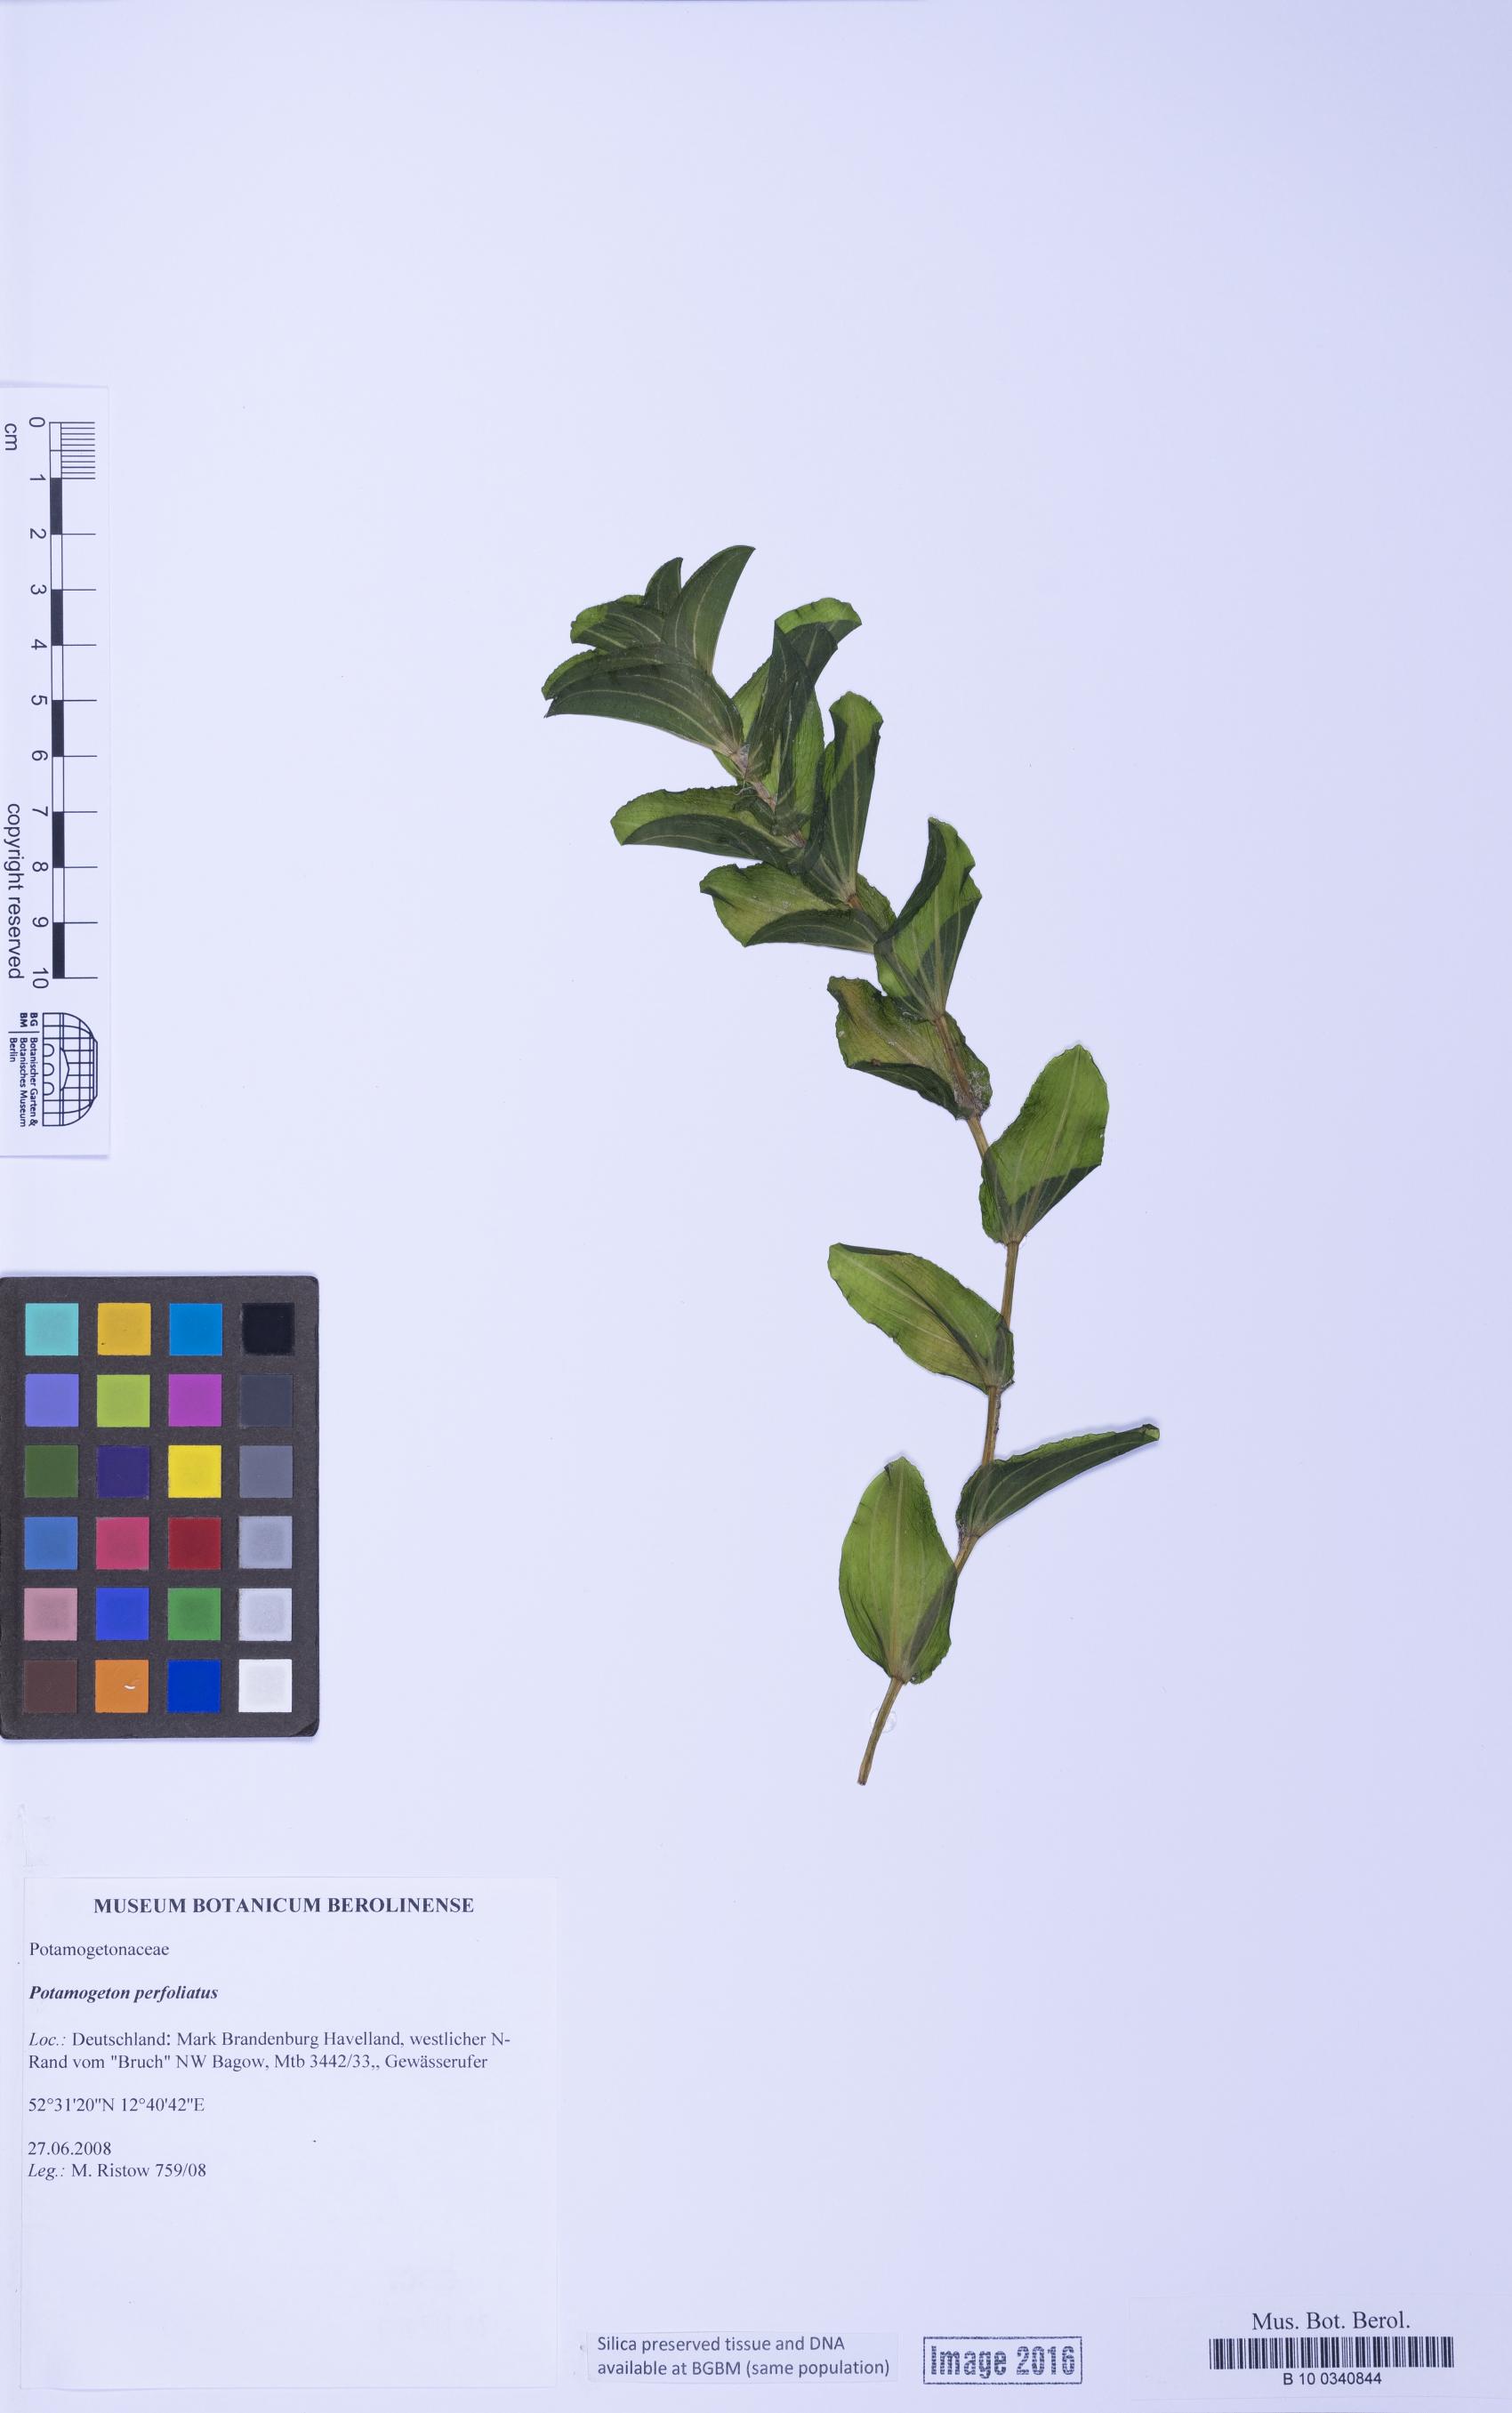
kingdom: Plantae
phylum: Tracheophyta
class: Liliopsida
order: Alismatales
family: Potamogetonaceae
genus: Potamogeton
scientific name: Potamogeton perfoliatus
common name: Perfoliate pondweed
